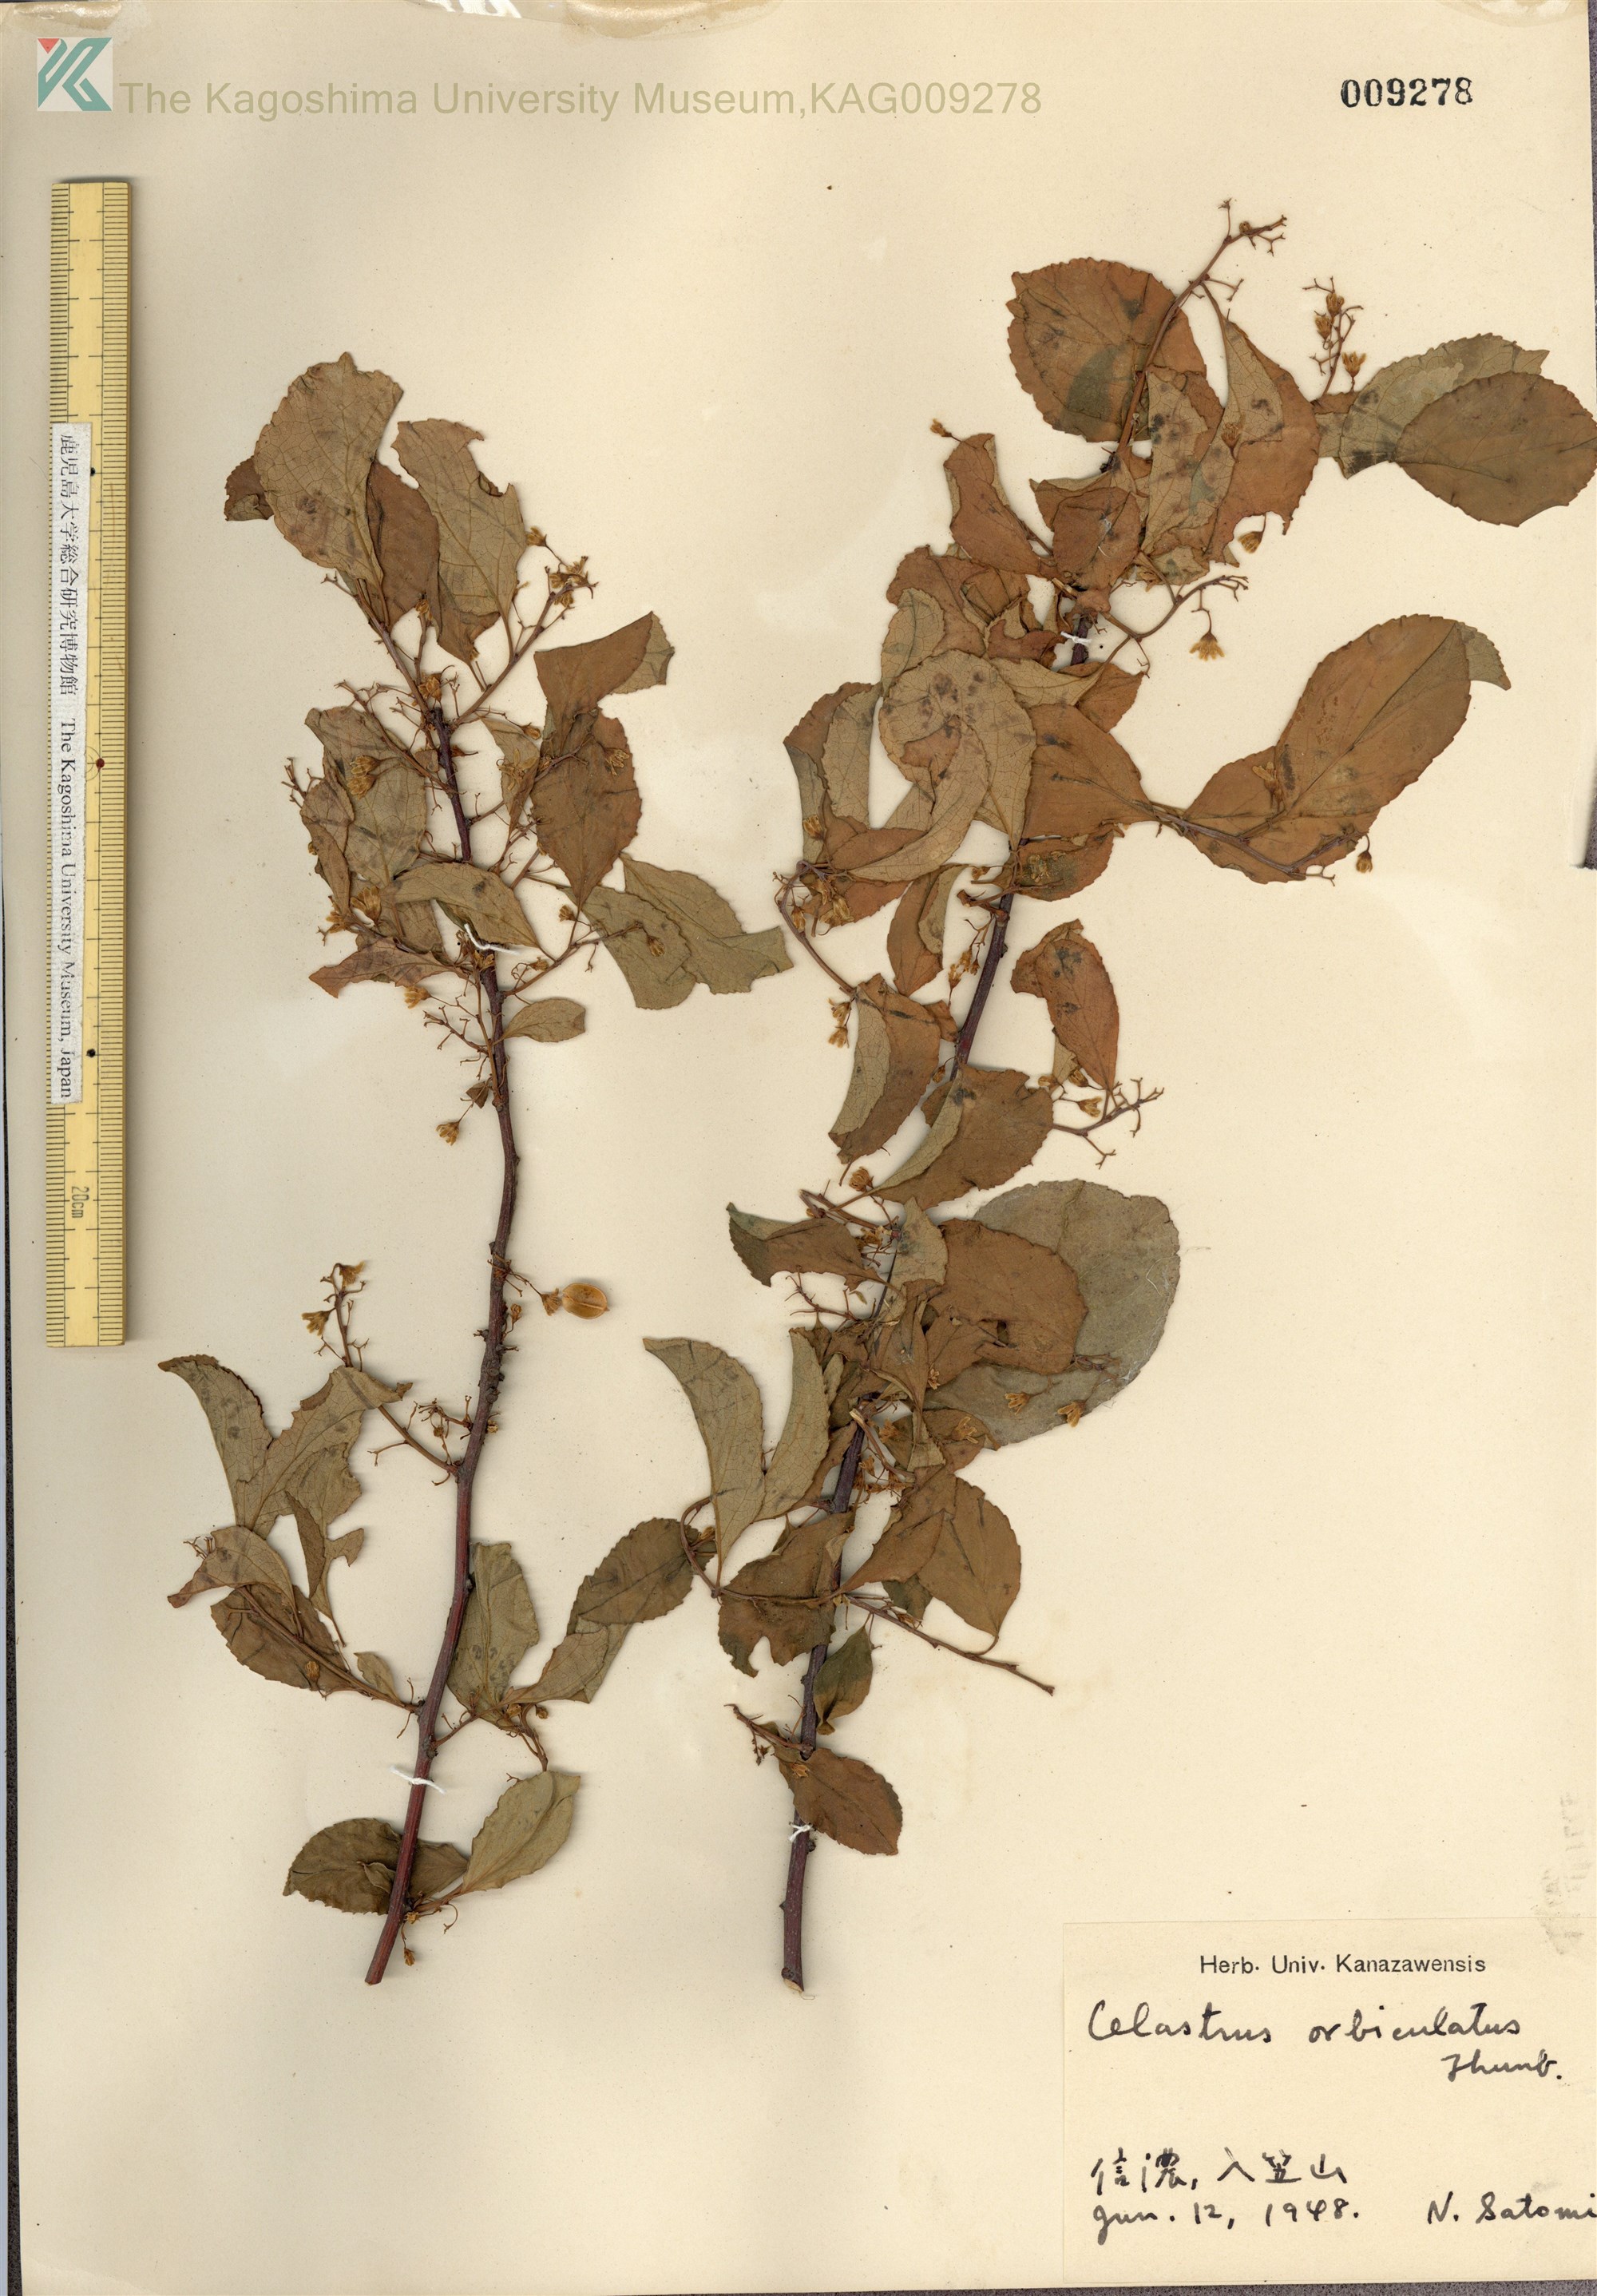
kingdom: Plantae
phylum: Tracheophyta
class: Magnoliopsida
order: Celastrales
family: Celastraceae
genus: Celastrus
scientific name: Celastrus orbiculatus
